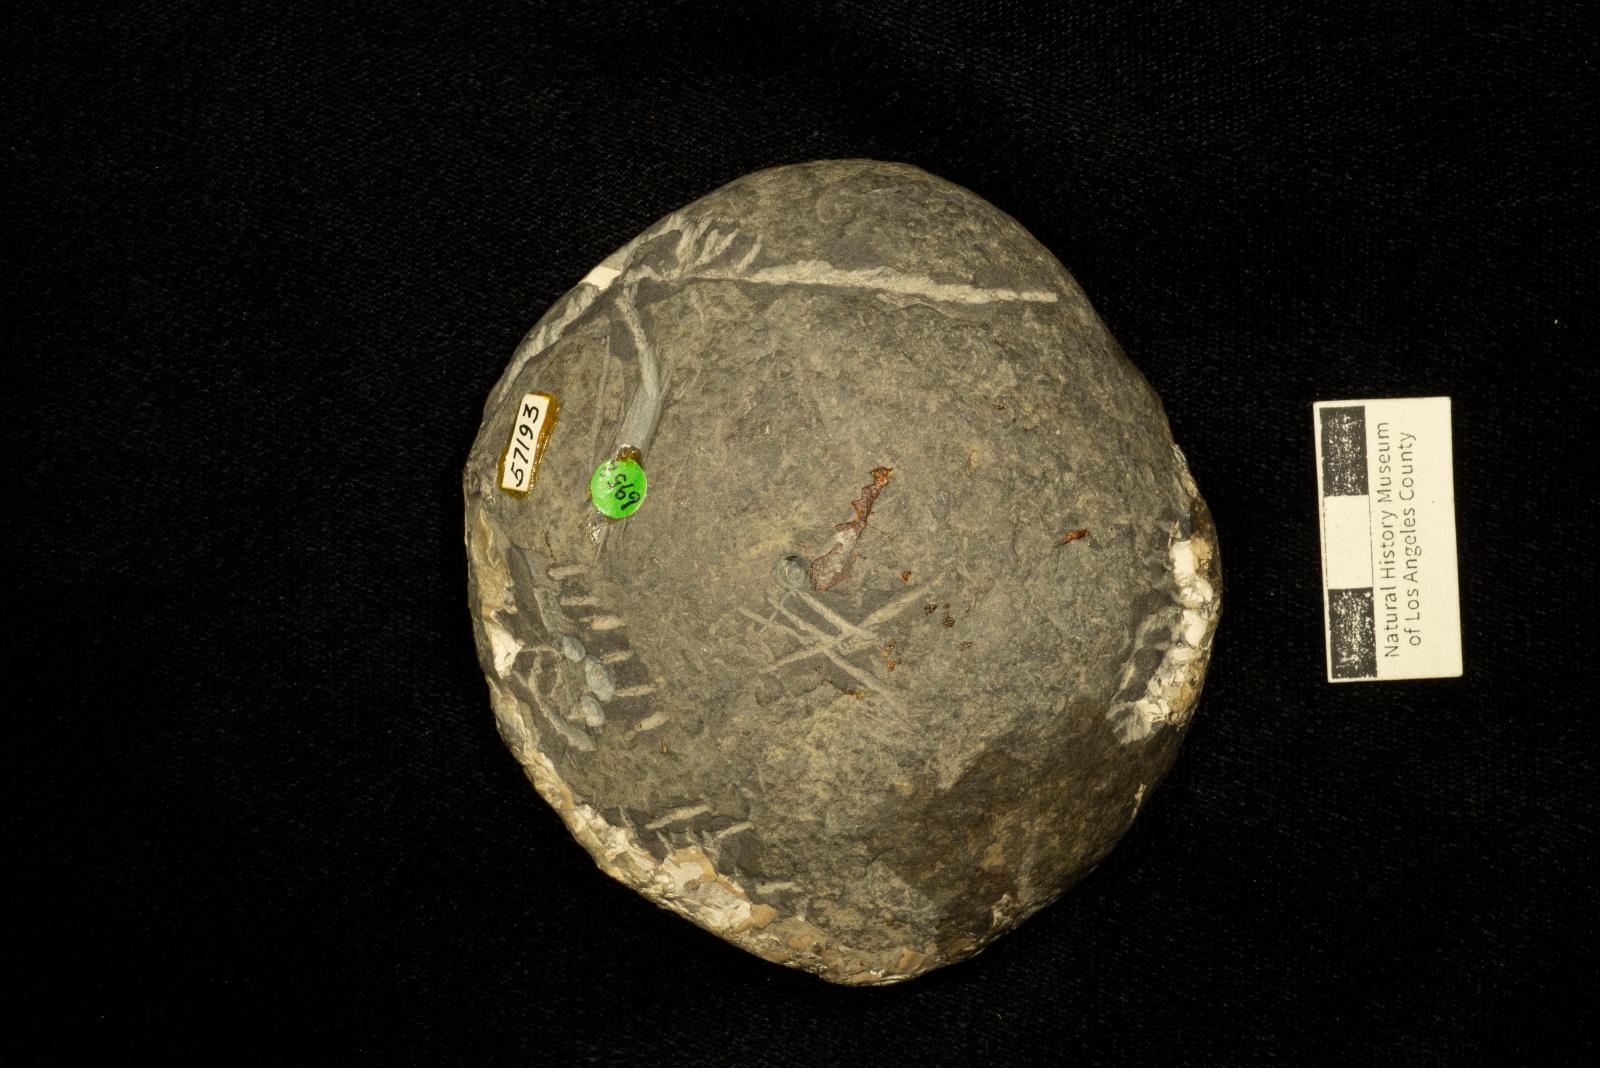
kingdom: Animalia
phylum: Mollusca
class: Cephalopoda
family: Pachydiscidae
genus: Menuites
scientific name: Menuites
